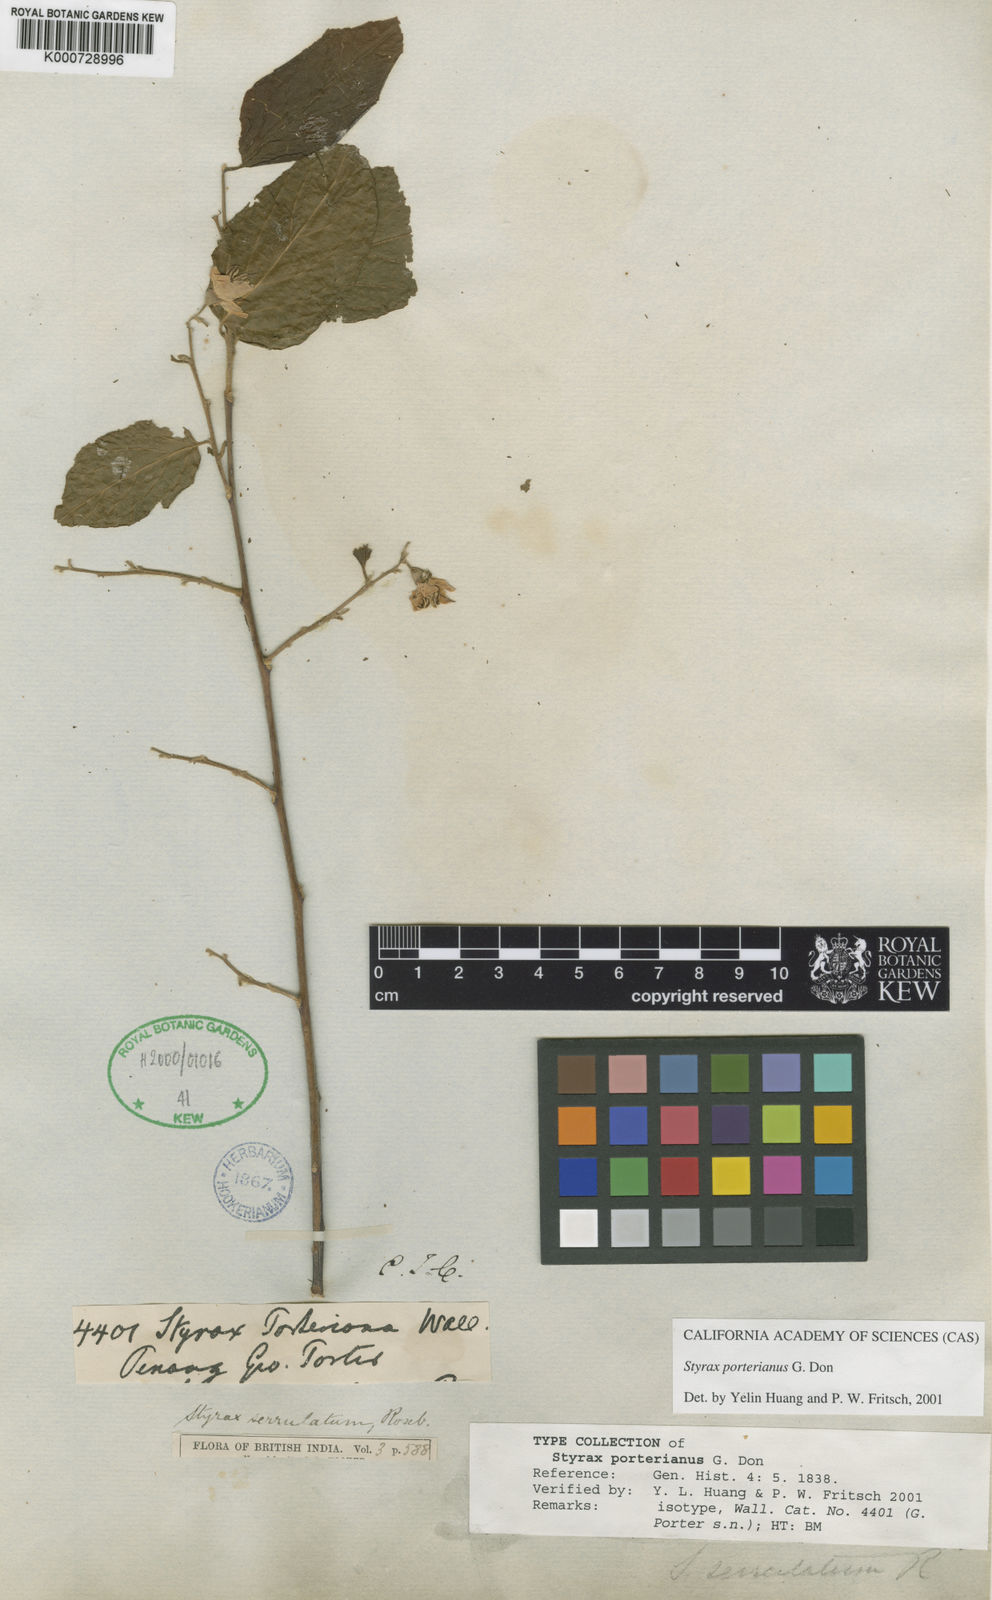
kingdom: Plantae
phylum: Tracheophyta
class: Magnoliopsida
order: Ericales
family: Styracaceae
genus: Styrax
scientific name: Styrax serrulatus
